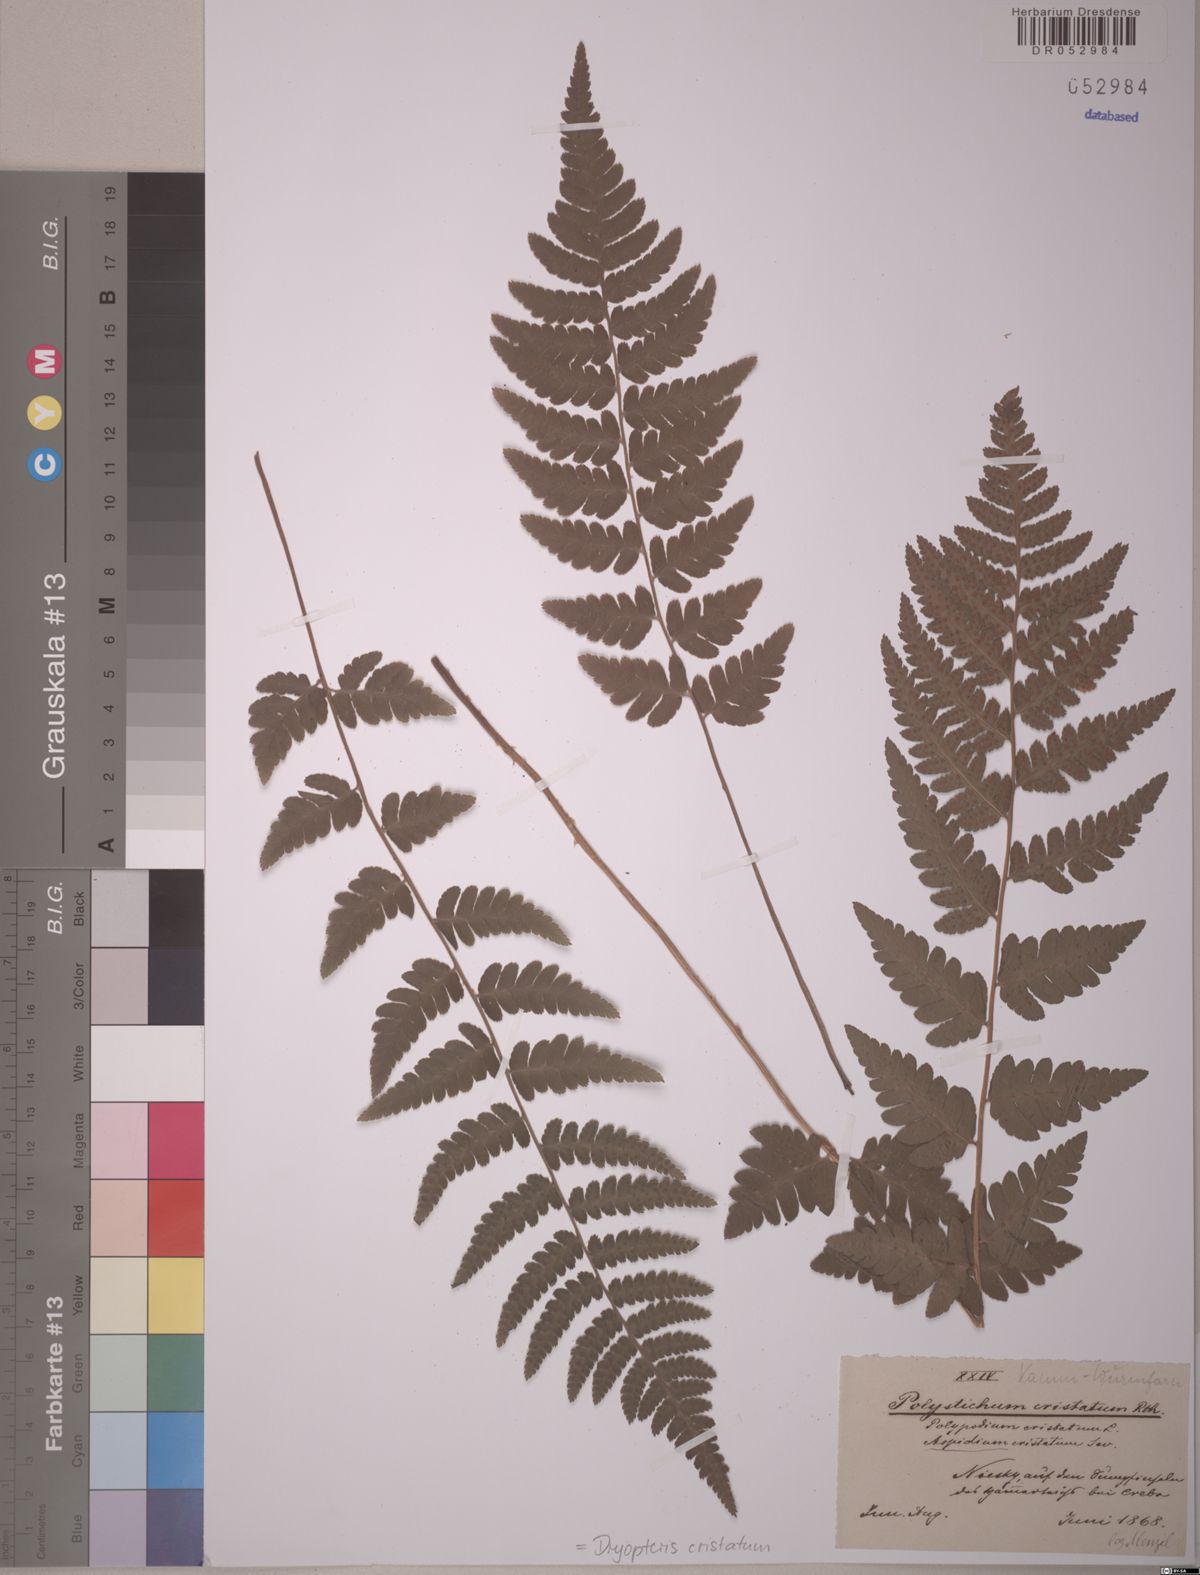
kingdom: Plantae
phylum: Tracheophyta
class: Polypodiopsida
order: Polypodiales
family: Dryopteridaceae
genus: Dryopteris
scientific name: Dryopteris cristata
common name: Crested wood fern
